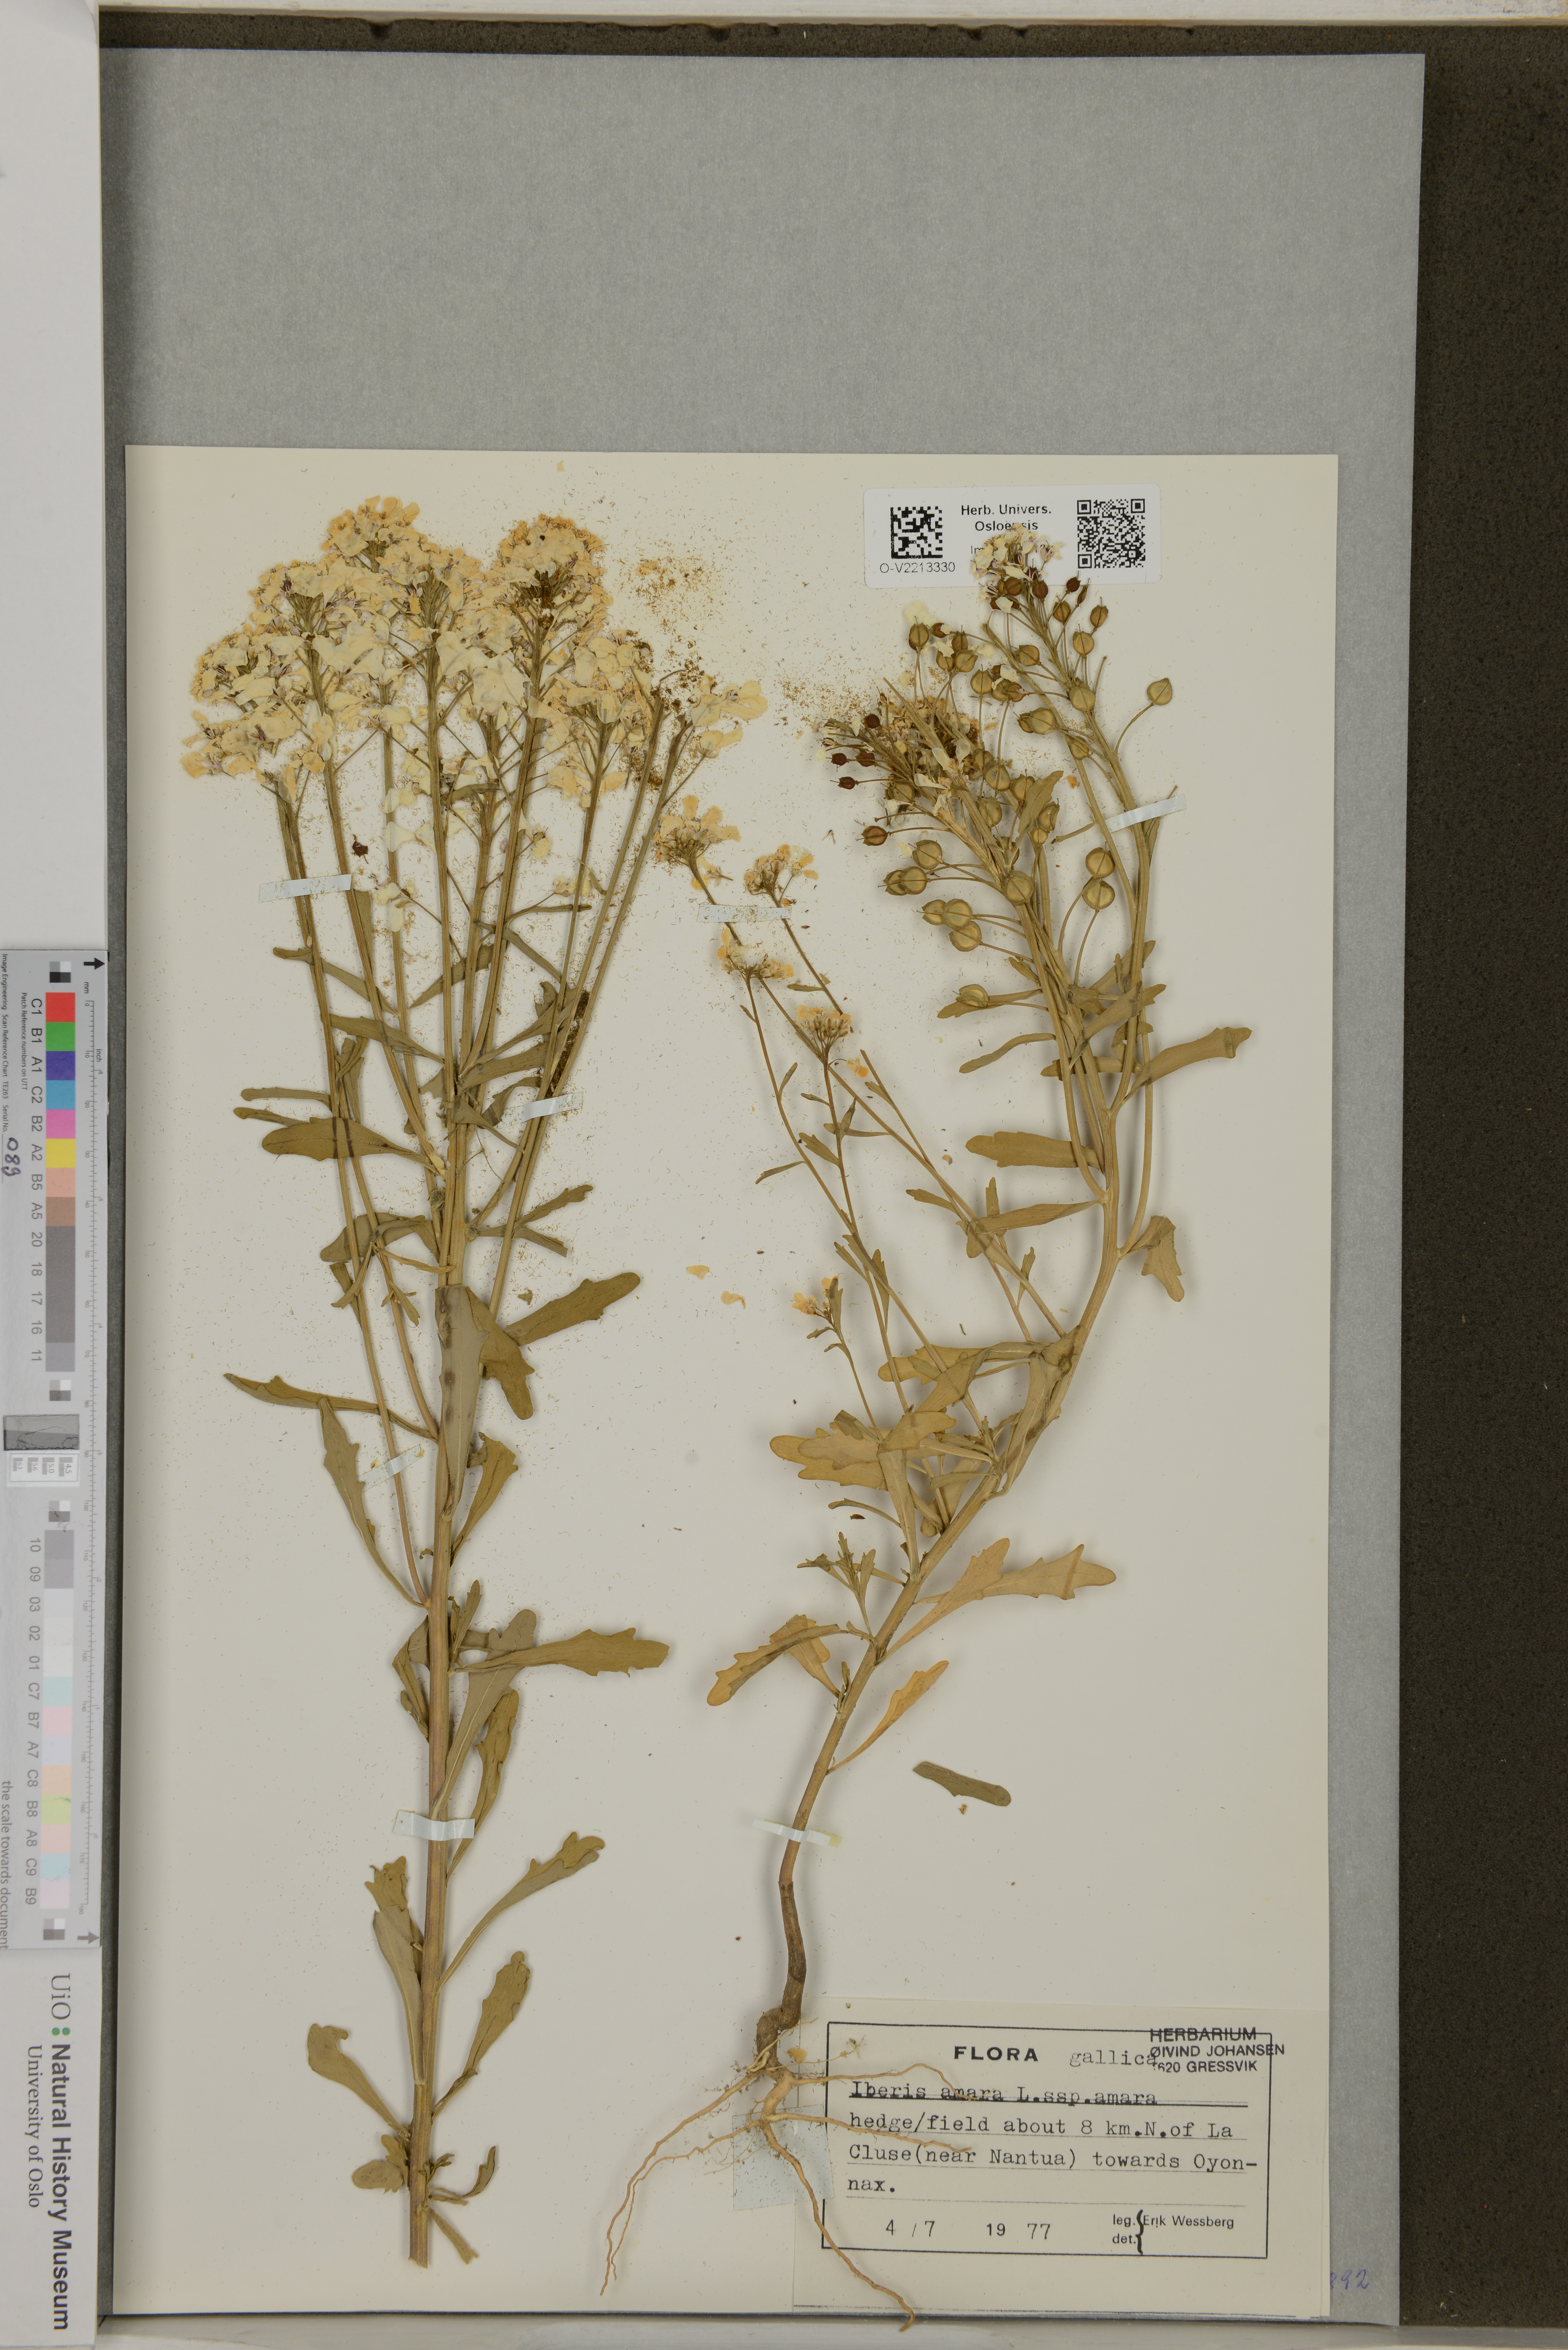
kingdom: Plantae
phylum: Tracheophyta
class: Magnoliopsida
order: Brassicales
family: Brassicaceae
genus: Iberis
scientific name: Iberis amara
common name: Annual candytuft
